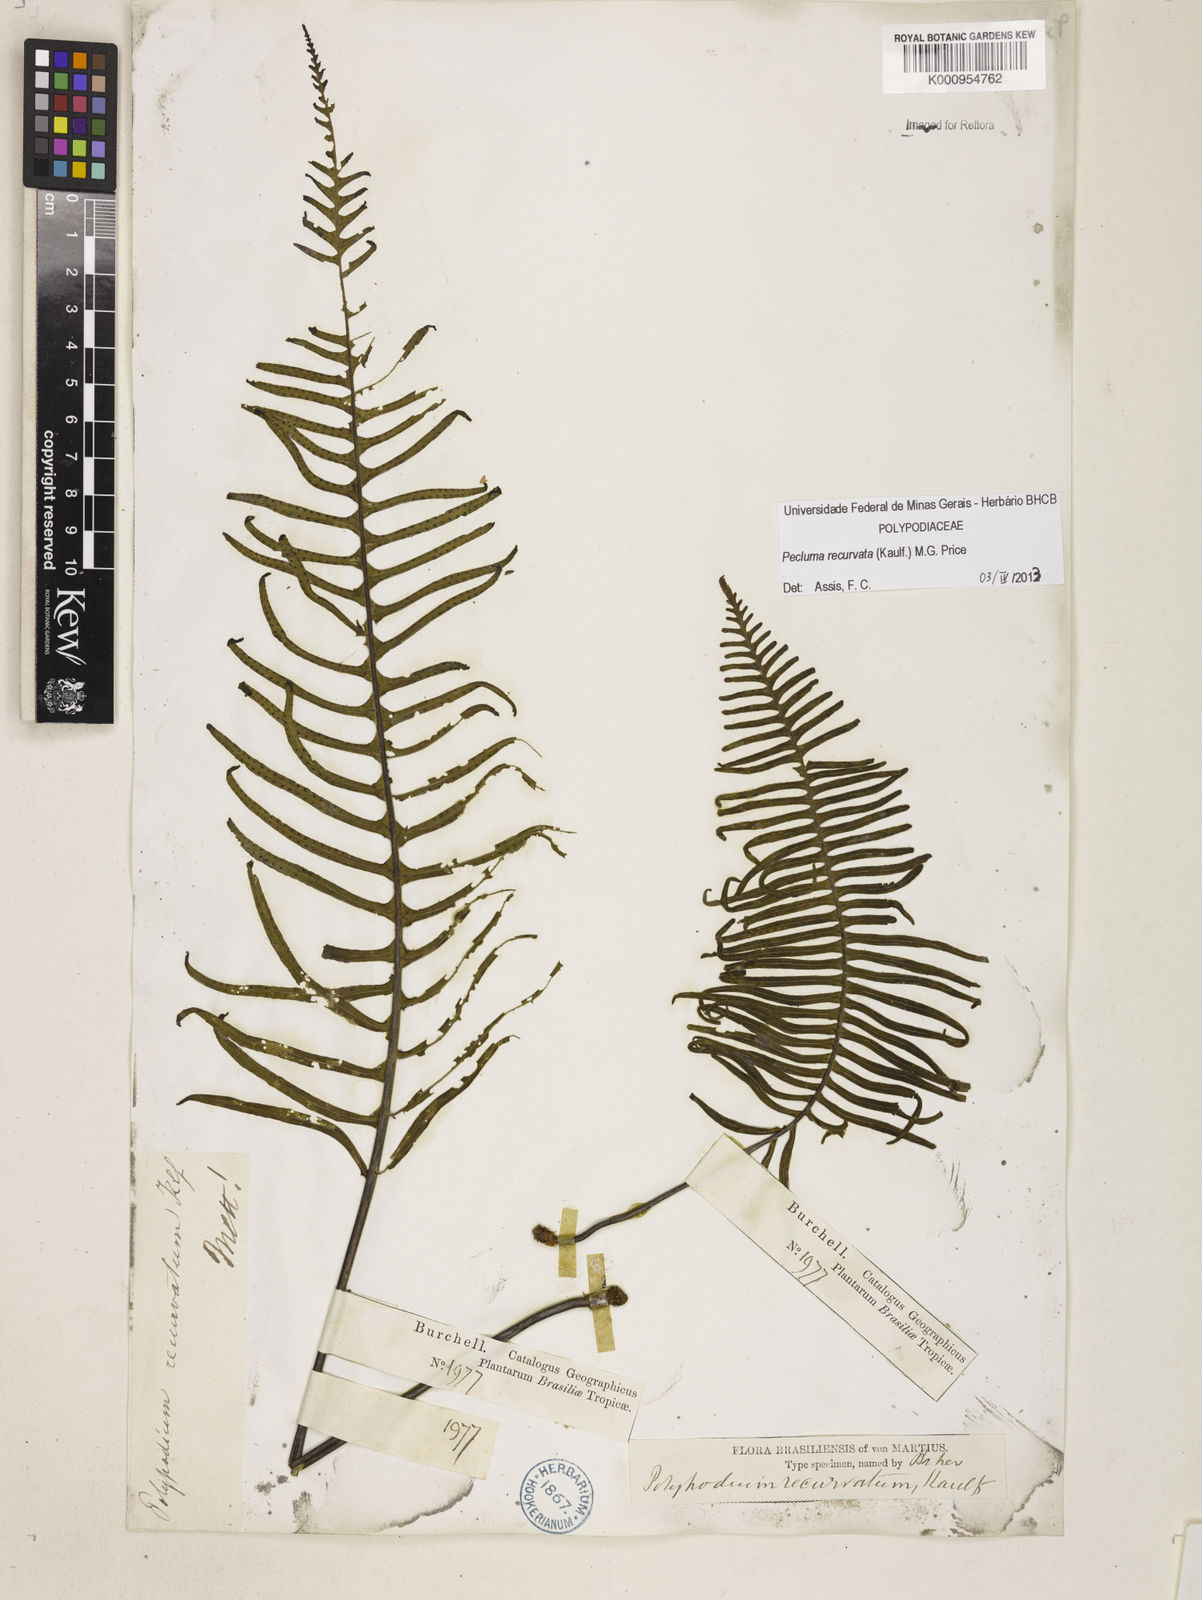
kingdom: Plantae
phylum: Tracheophyta
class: Polypodiopsida
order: Polypodiales
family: Polypodiaceae
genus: Pecluma
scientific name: Pecluma recurvata
